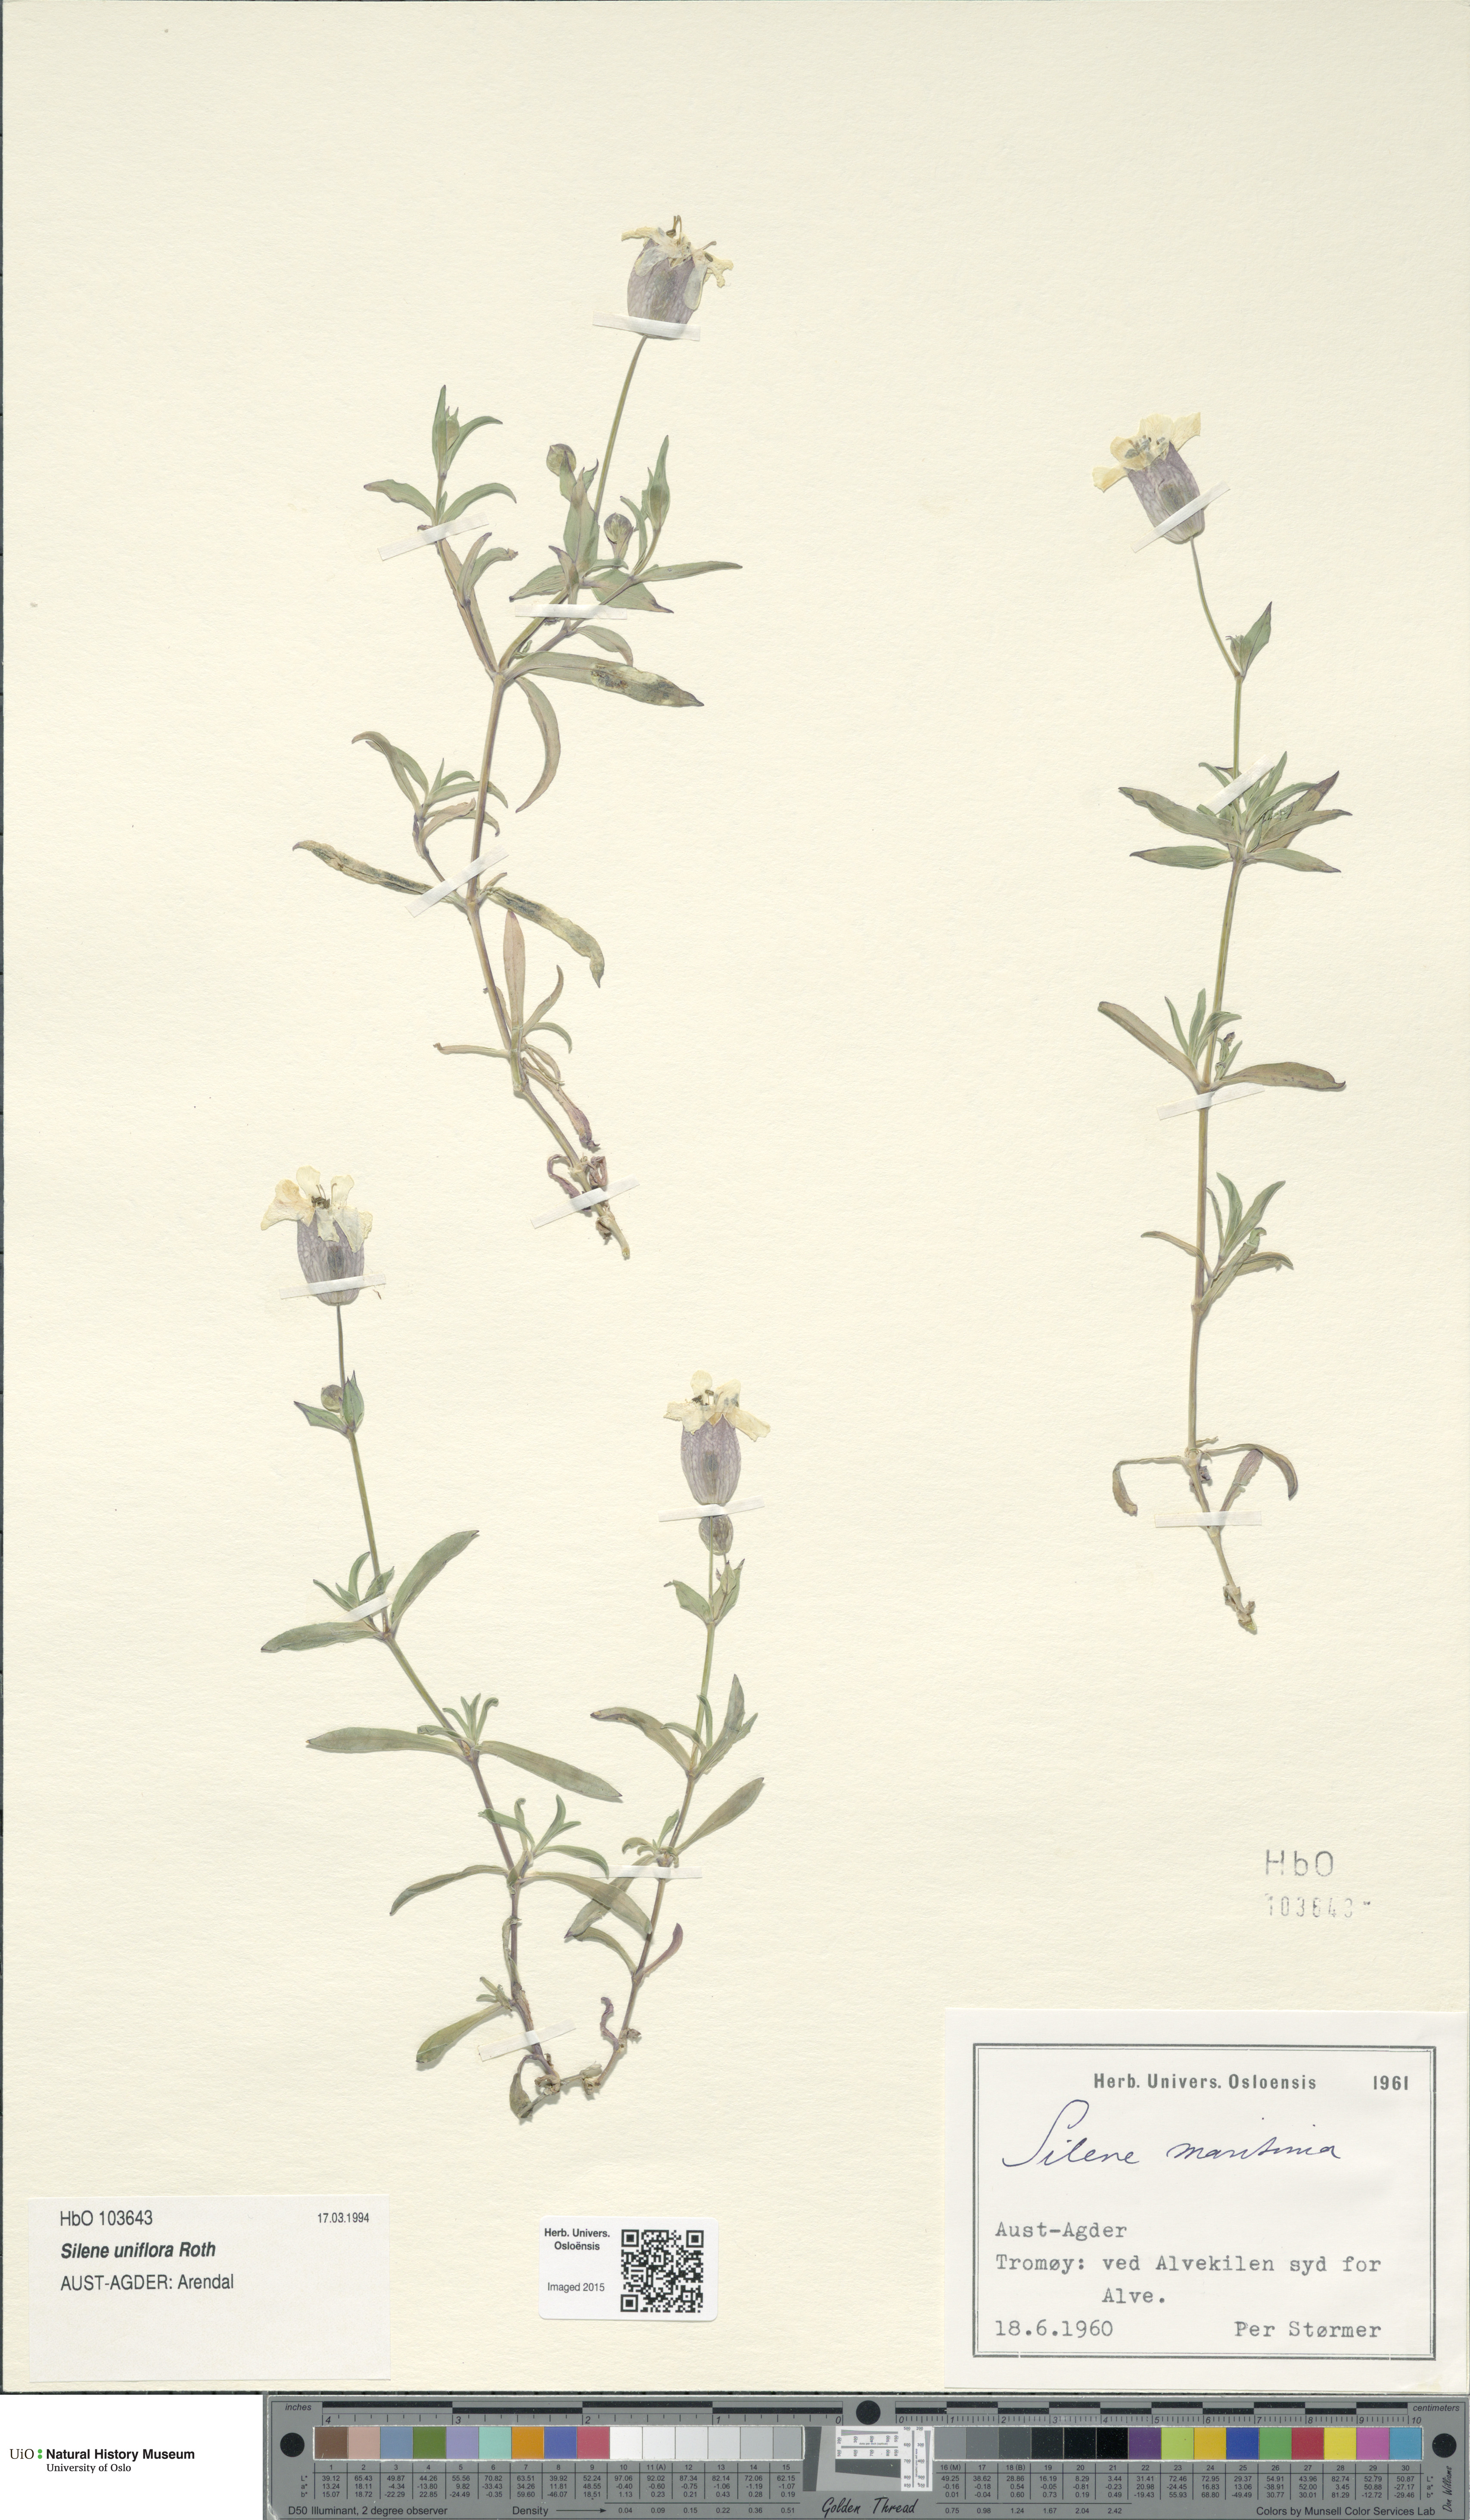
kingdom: Plantae
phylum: Tracheophyta
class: Magnoliopsida
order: Caryophyllales
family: Caryophyllaceae
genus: Silene
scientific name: Silene uniflora
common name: Sea campion
